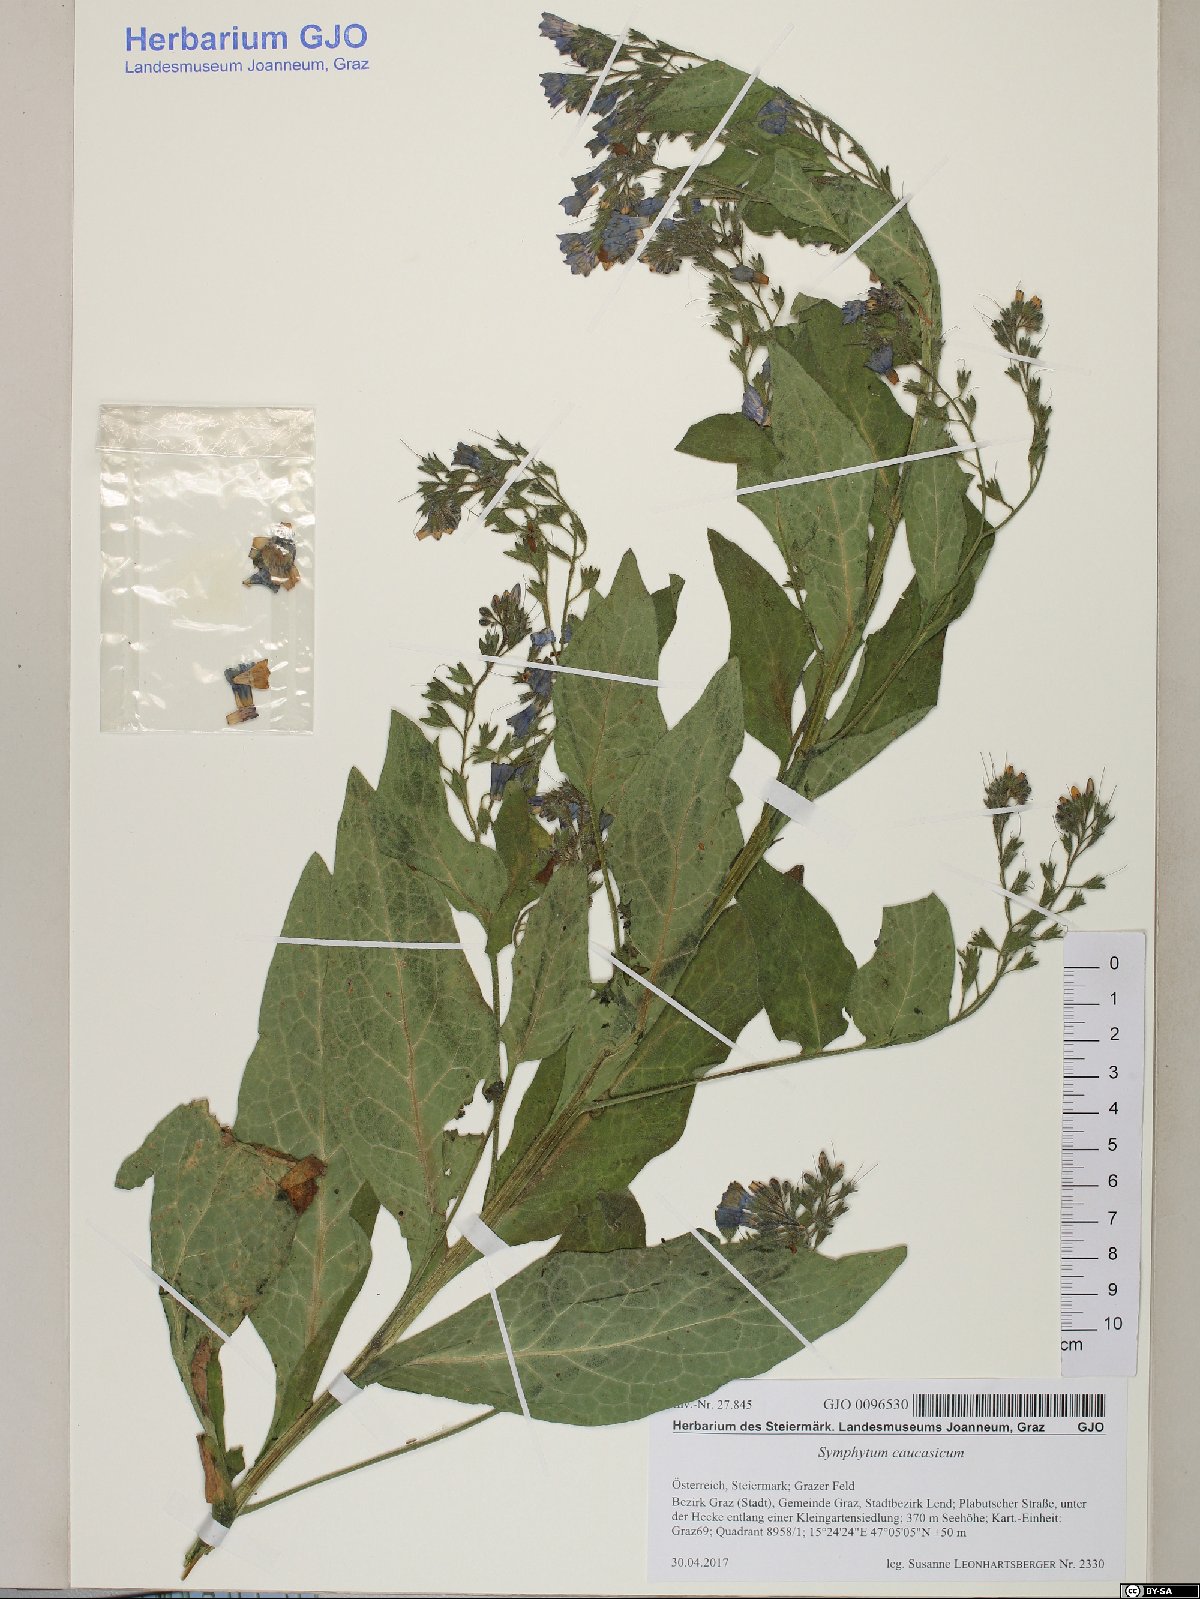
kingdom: Plantae
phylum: Tracheophyta
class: Magnoliopsida
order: Boraginales
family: Boraginaceae
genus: Symphytum
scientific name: Symphytum caucasicum
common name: Caucasian comfrey
